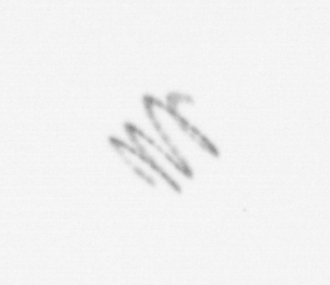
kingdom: Chromista
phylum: Ochrophyta
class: Bacillariophyceae
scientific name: Bacillariophyceae
